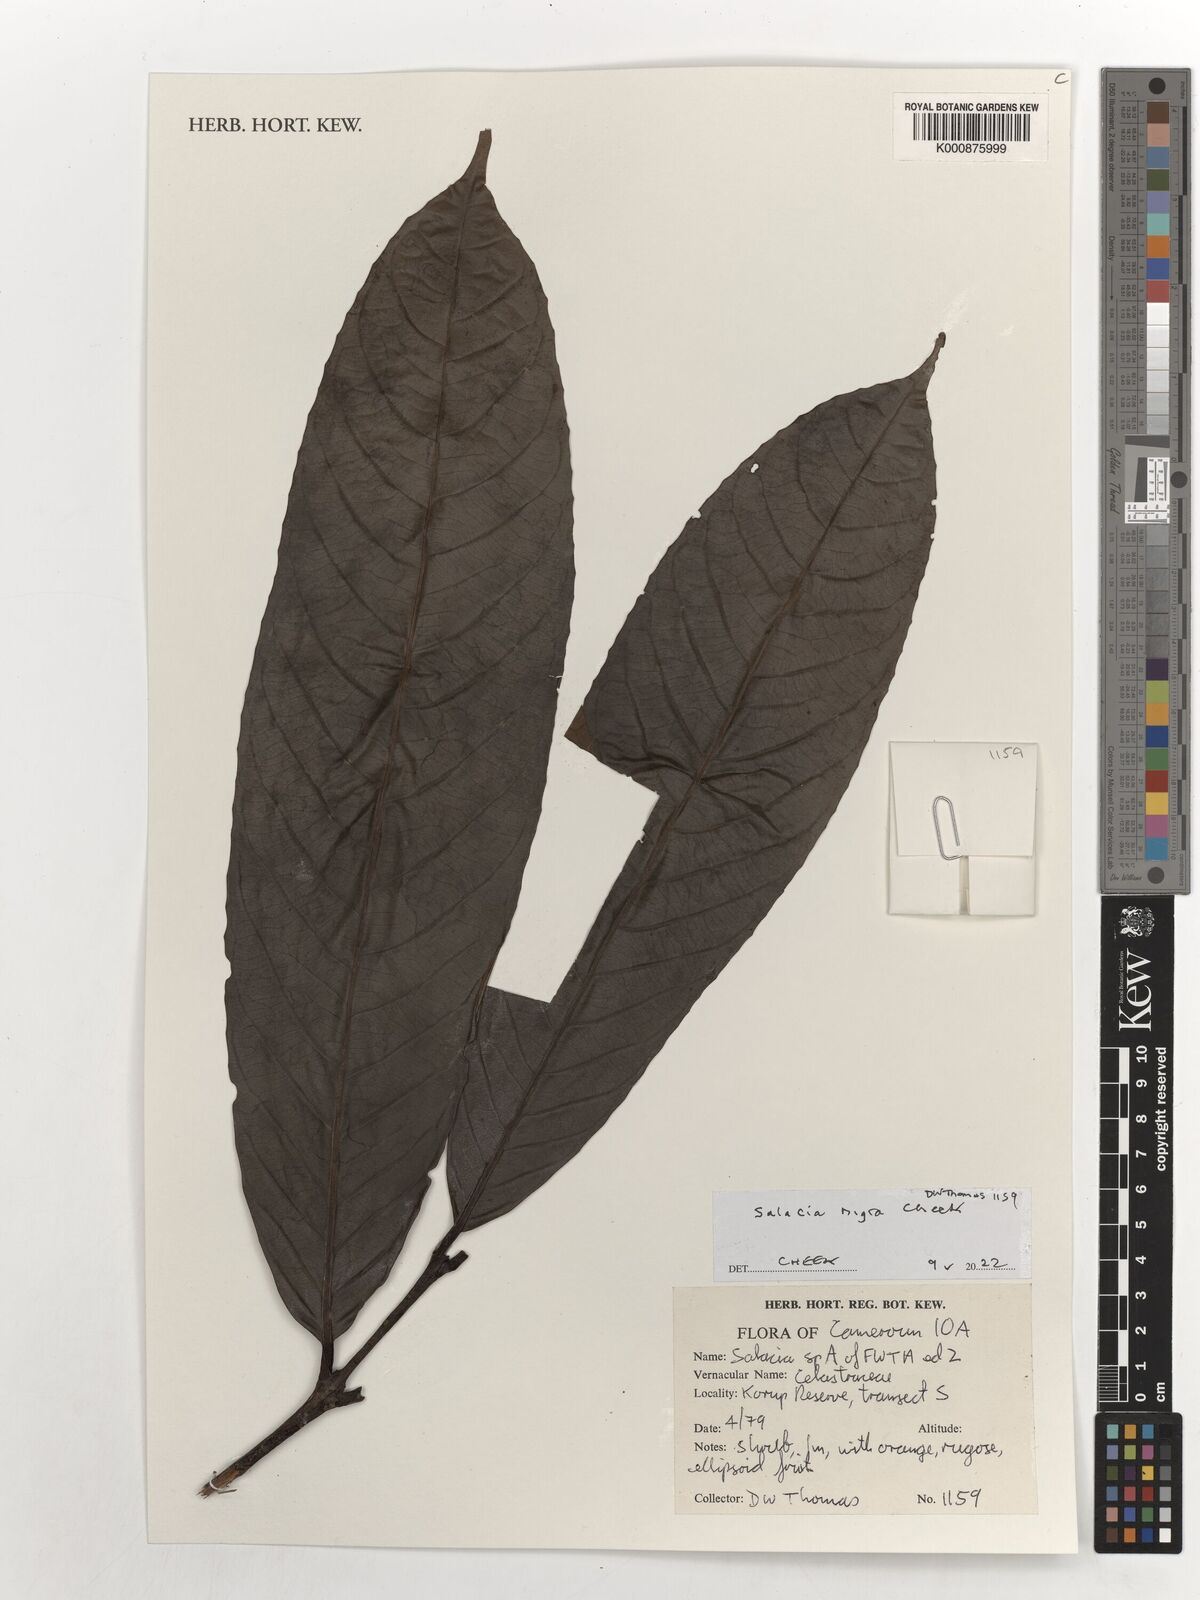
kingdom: Plantae
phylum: Tracheophyta
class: Magnoliopsida
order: Celastrales
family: Celastraceae
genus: Salacia
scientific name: Salacia nigra
